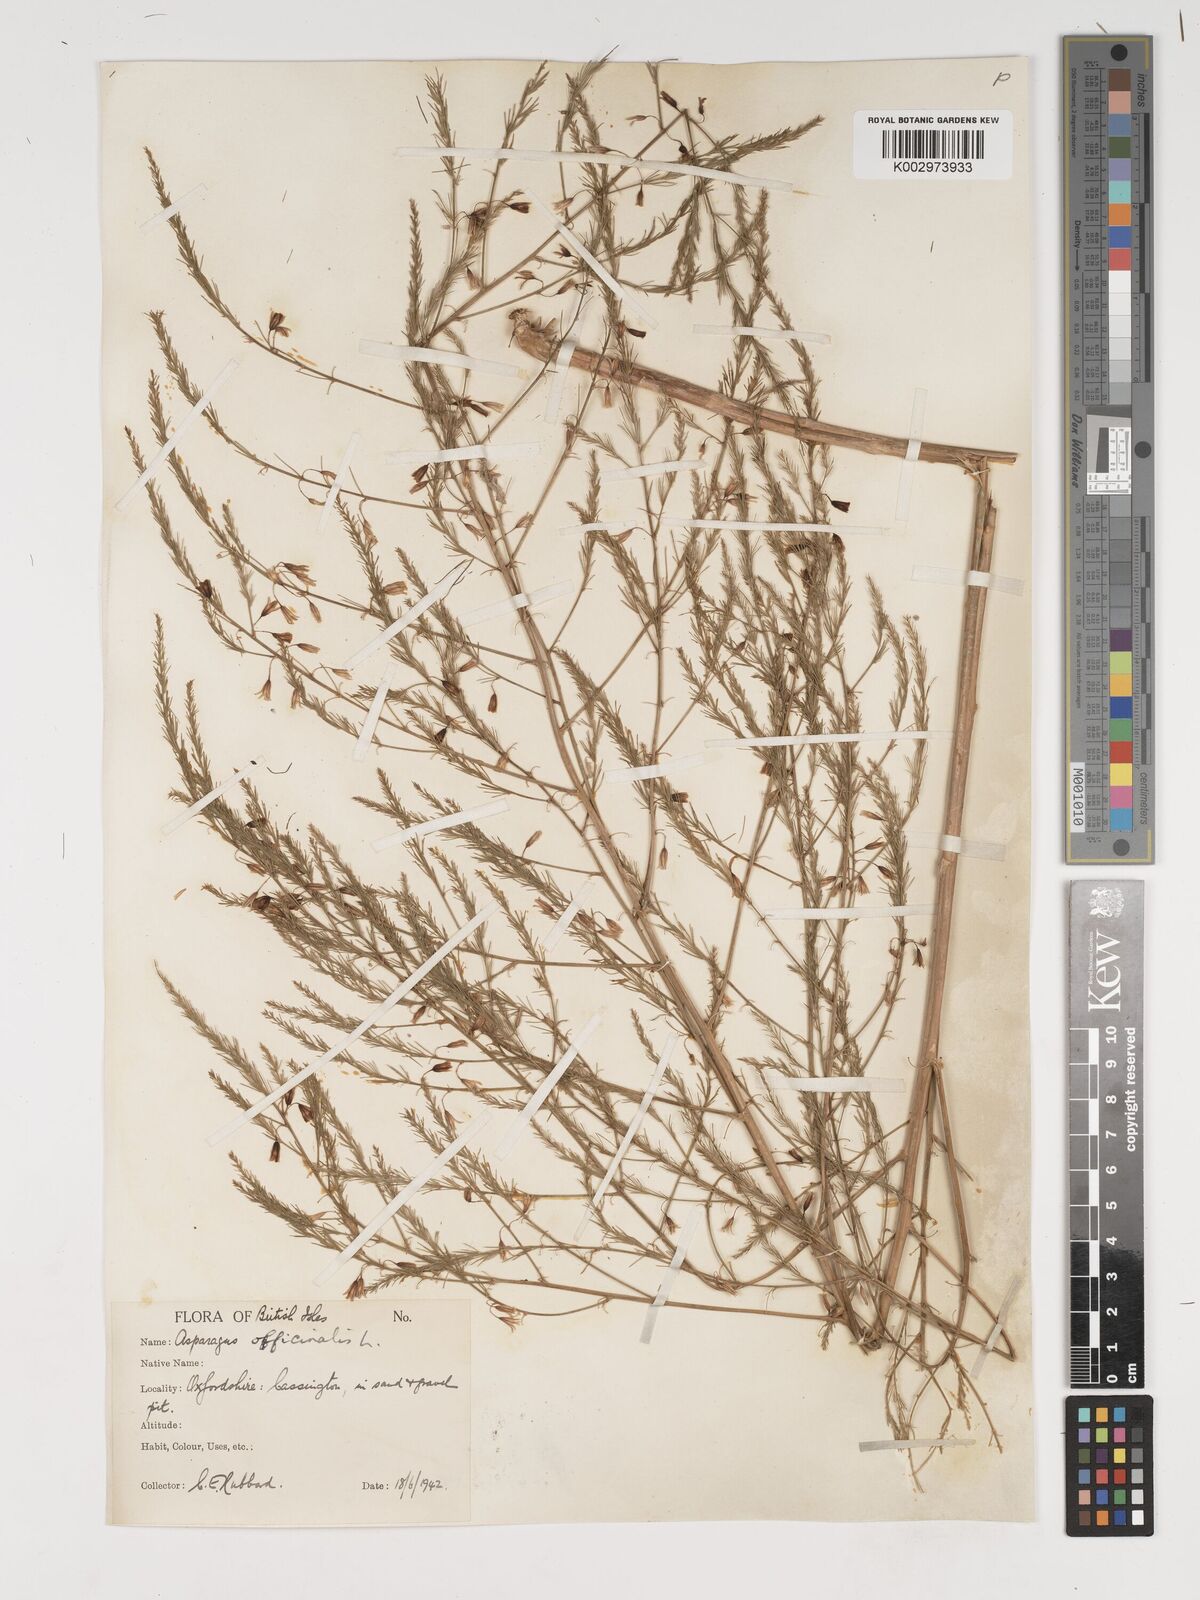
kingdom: Plantae
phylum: Tracheophyta
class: Liliopsida
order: Asparagales
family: Asparagaceae
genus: Asparagus
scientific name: Asparagus officinalis
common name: Garden asparagus
